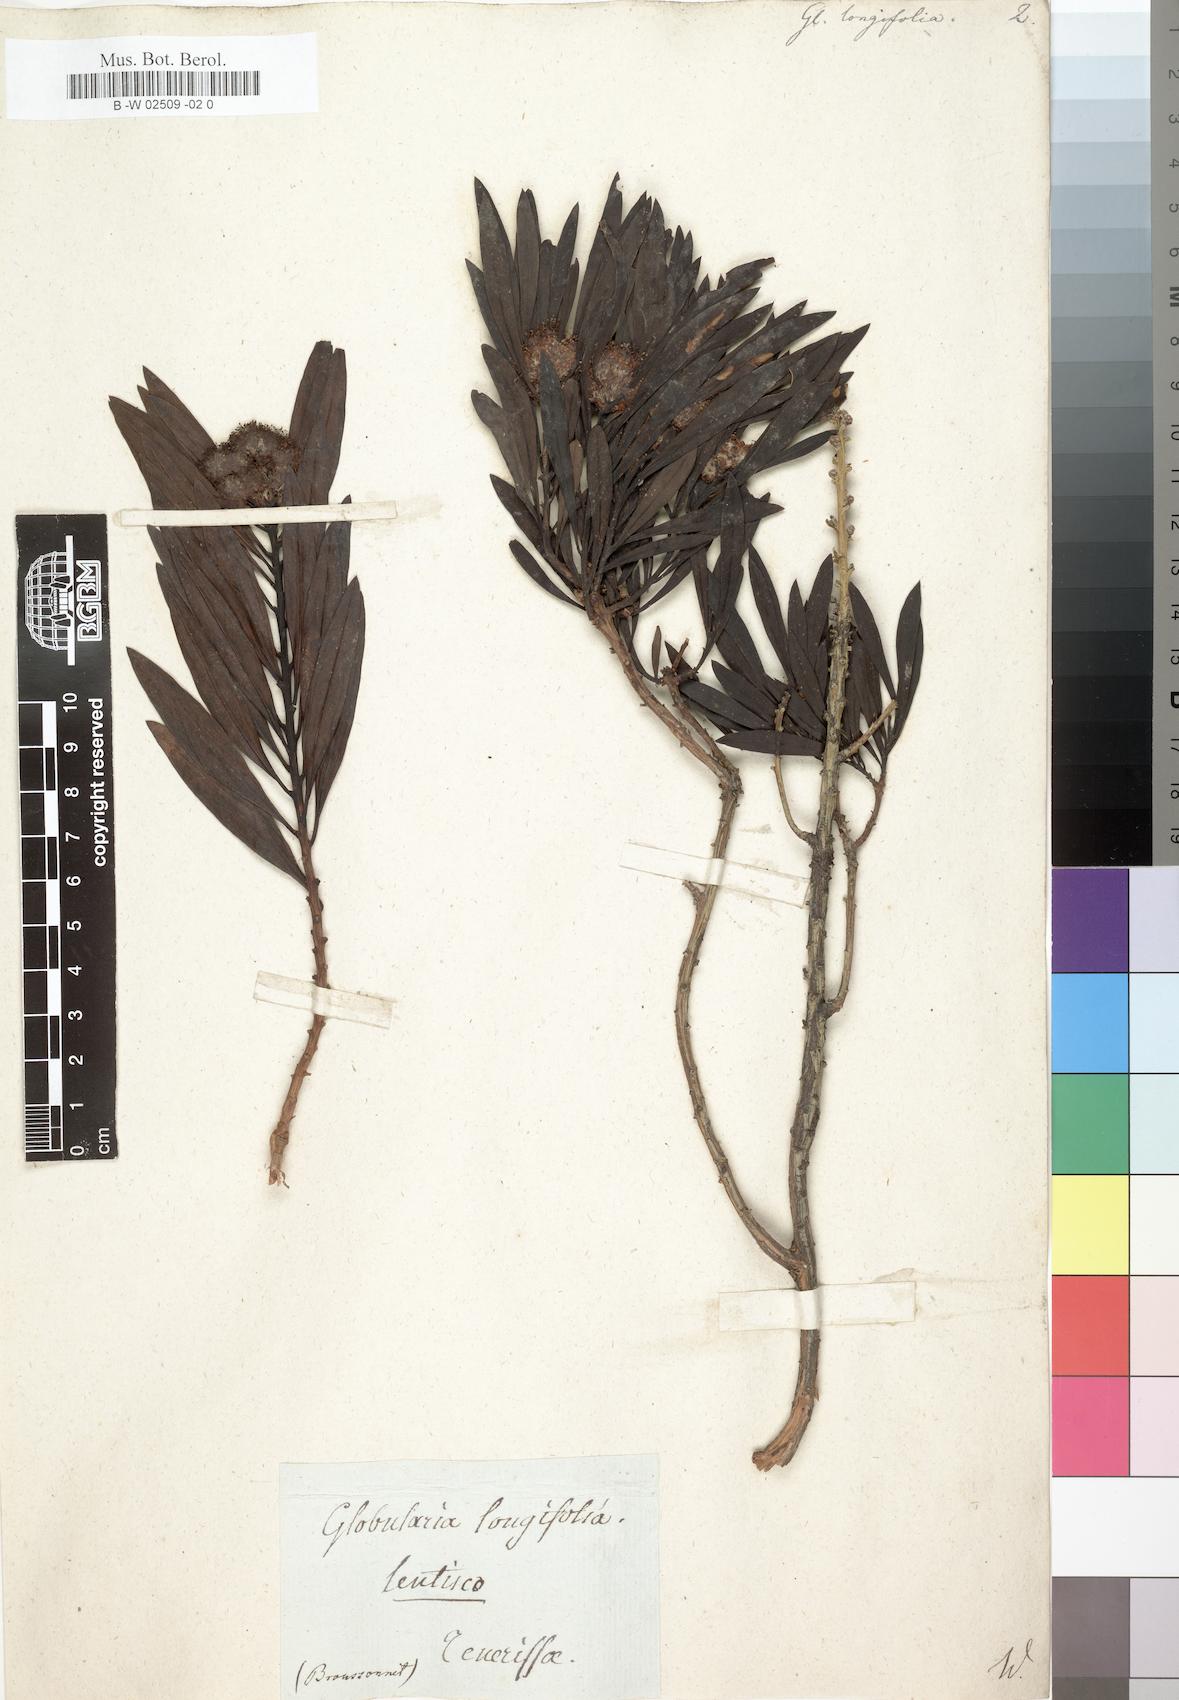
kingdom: Plantae
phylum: Tracheophyta
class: Magnoliopsida
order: Lamiales
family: Plantaginaceae
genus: Globularia
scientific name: Globularia salicina
